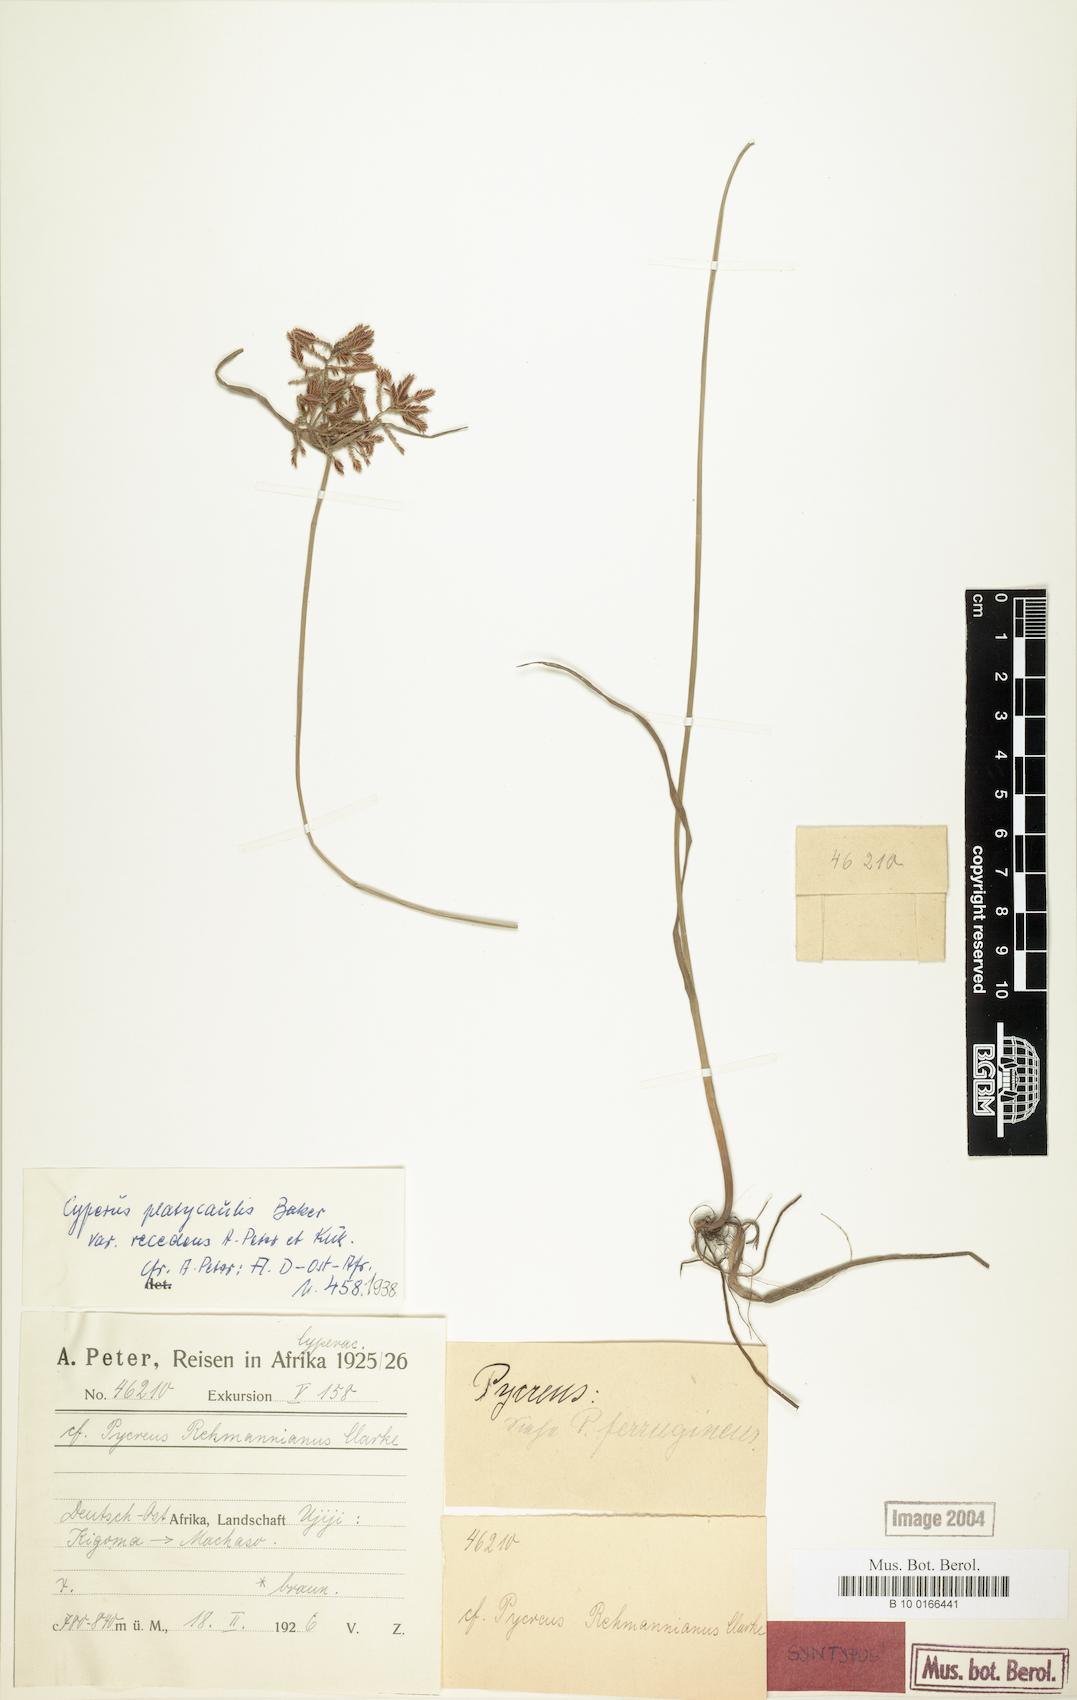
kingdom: Plantae
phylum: Tracheophyta
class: Liliopsida
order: Poales
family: Cyperaceae
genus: Cyperus
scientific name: Cyperus denudatus
